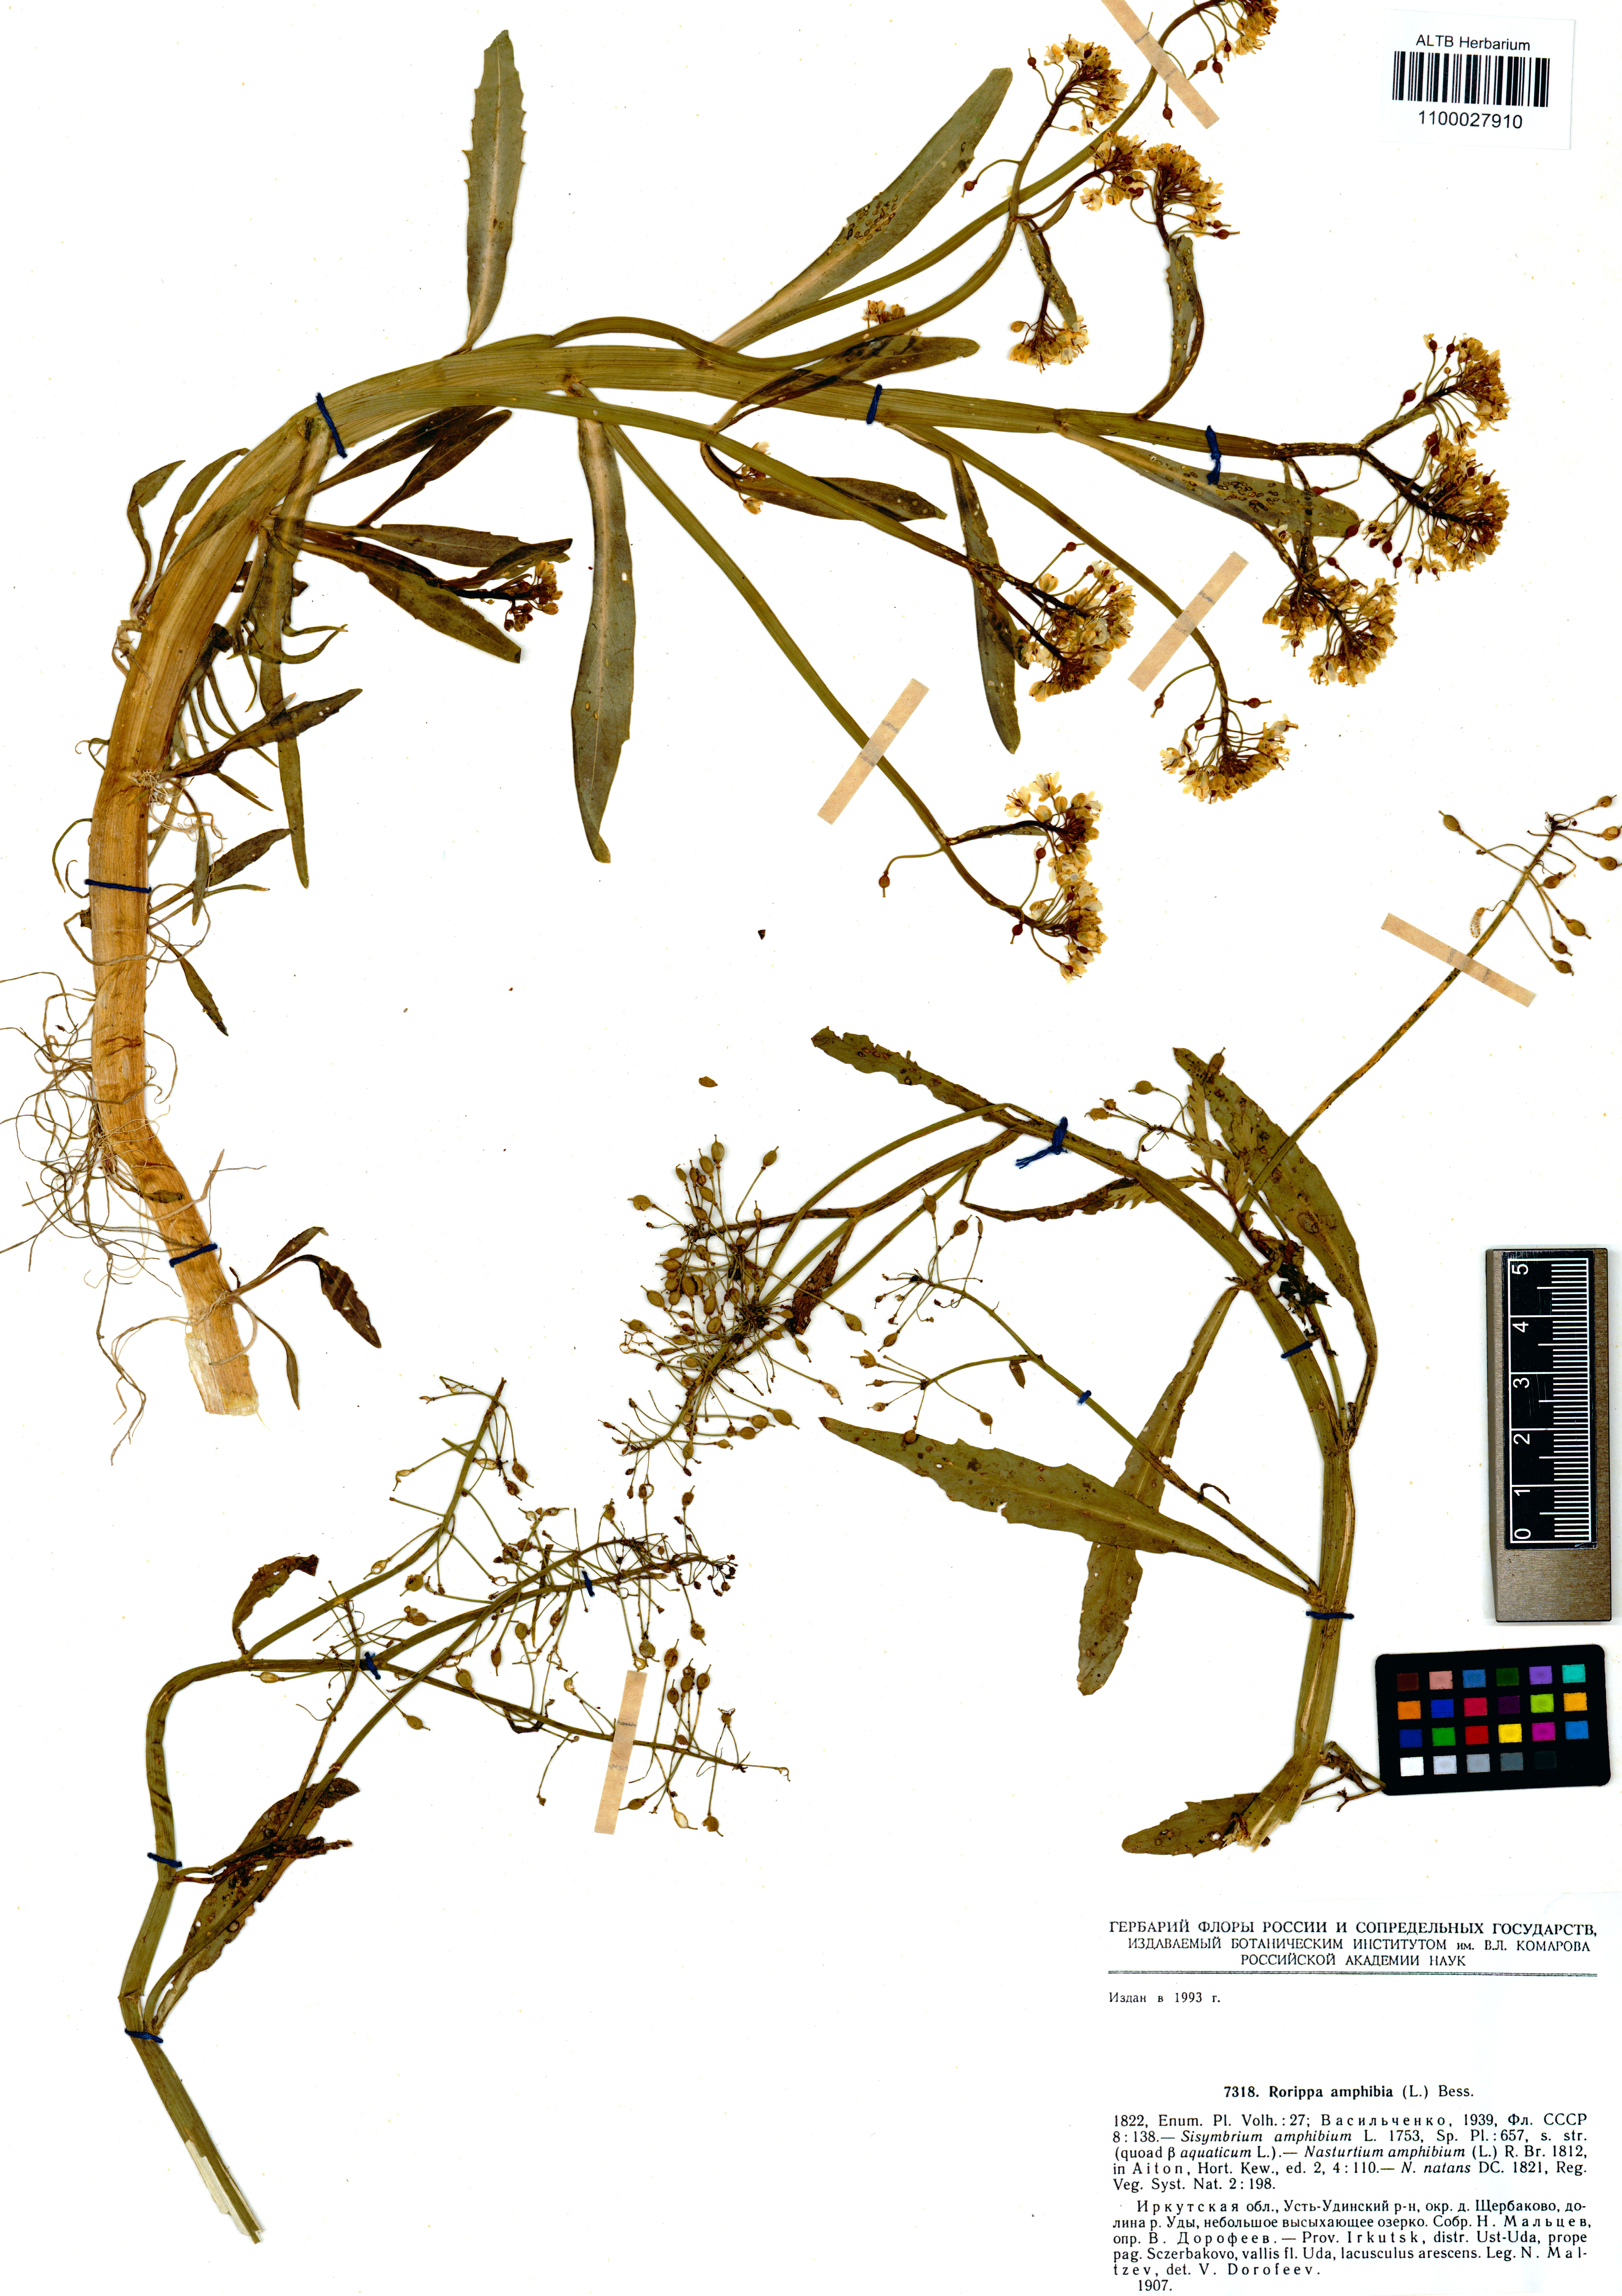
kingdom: Plantae
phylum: Tracheophyta
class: Magnoliopsida
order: Brassicales
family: Brassicaceae
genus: Rorippa
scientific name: Rorippa amphibia
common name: Great yellow-cress
